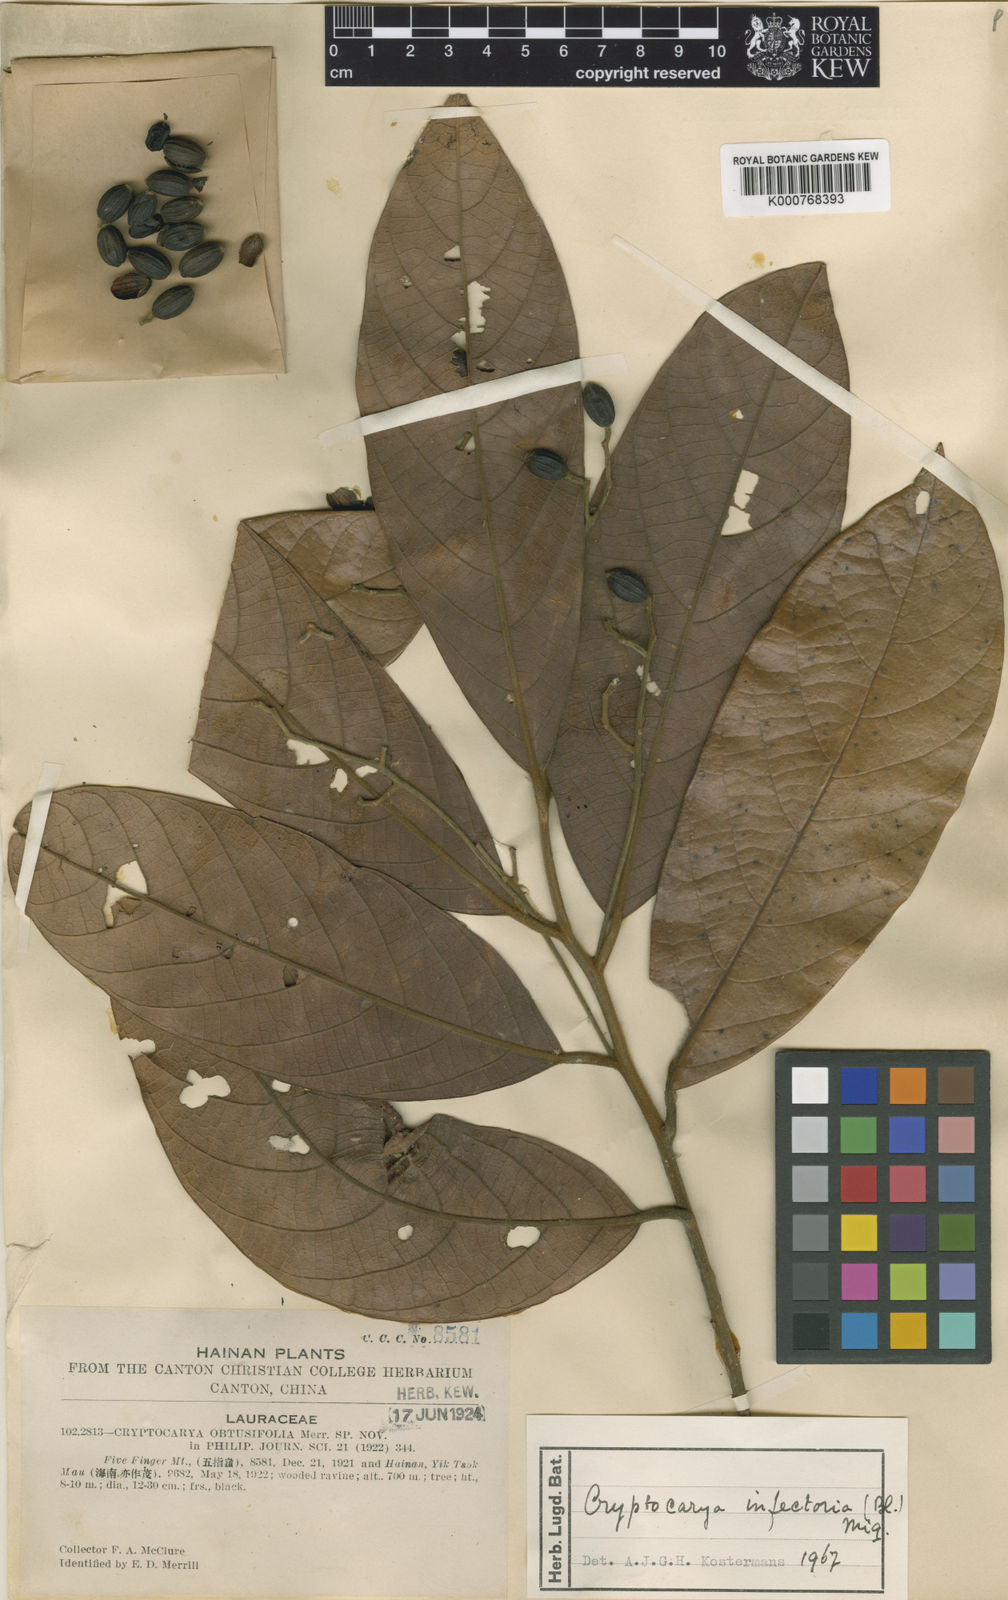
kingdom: Plantae
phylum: Tracheophyta
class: Magnoliopsida
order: Laurales
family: Lauraceae
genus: Cryptocarya
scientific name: Cryptocarya impressinervia
